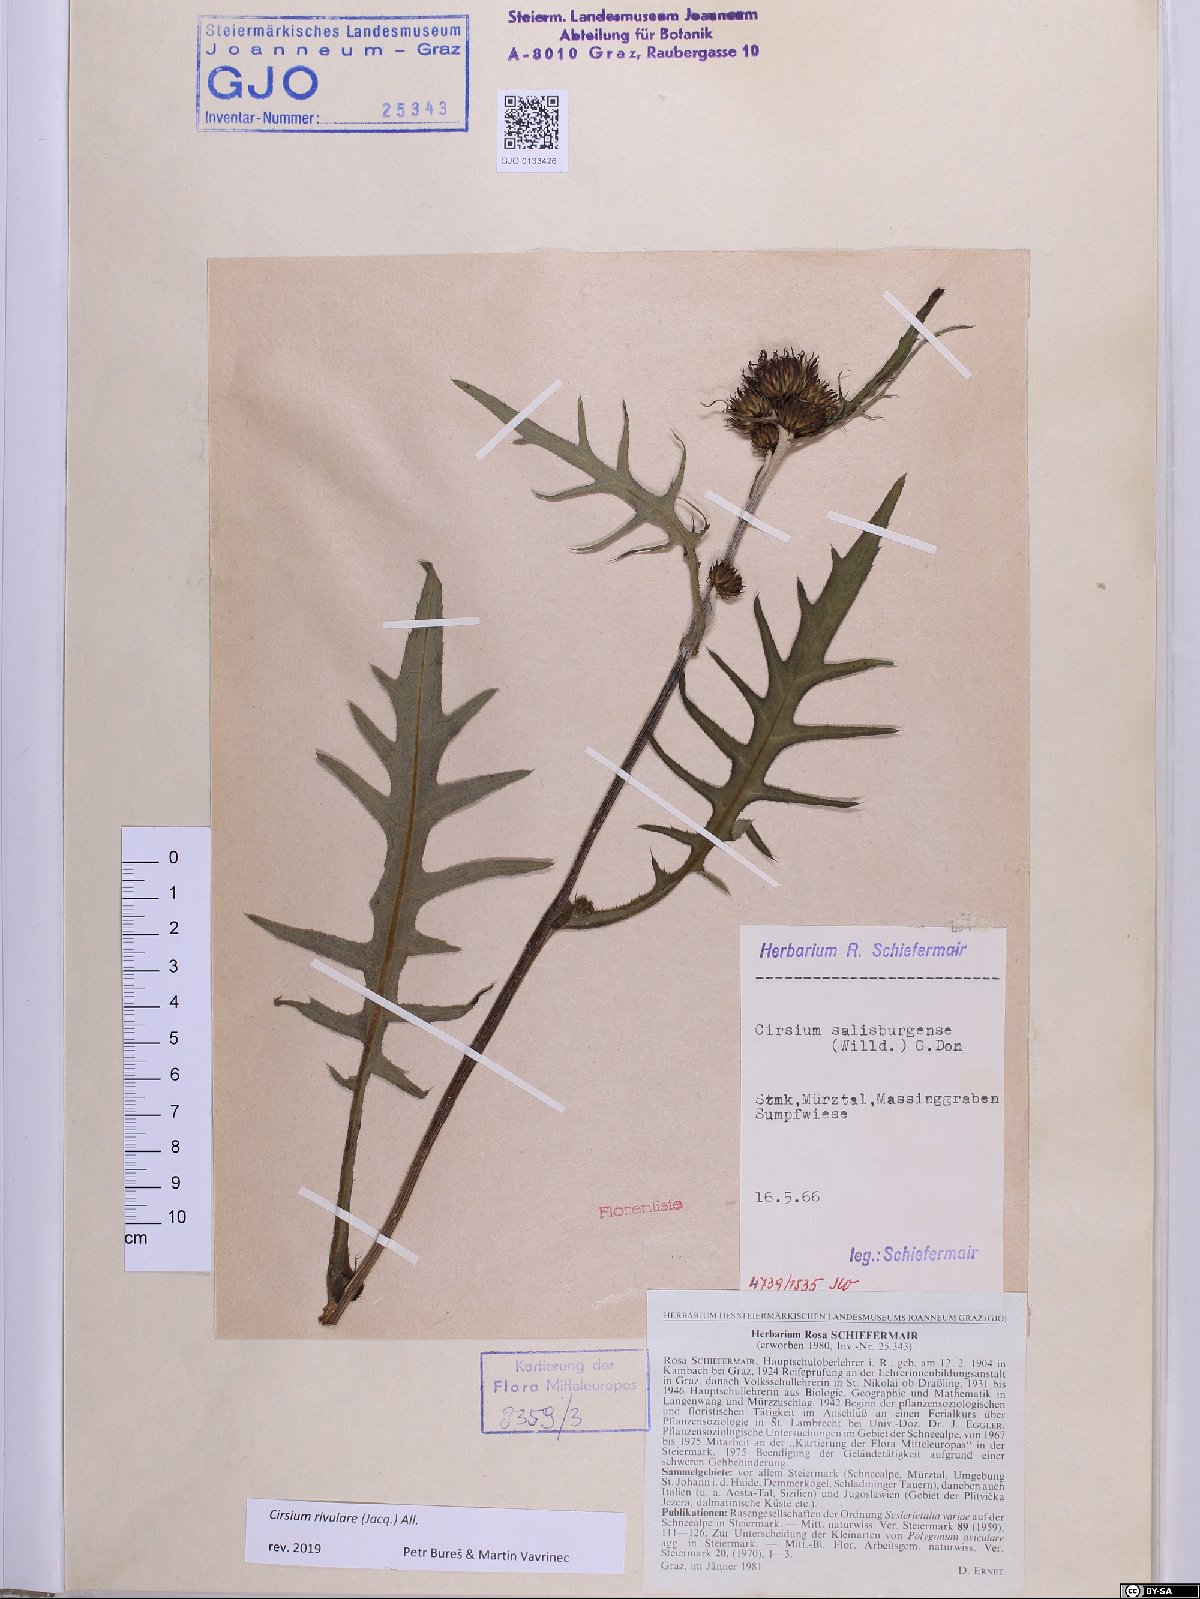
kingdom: Plantae
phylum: Tracheophyta
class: Magnoliopsida
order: Asterales
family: Asteraceae
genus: Cirsium
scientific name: Cirsium rivulare
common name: Brook thistle
